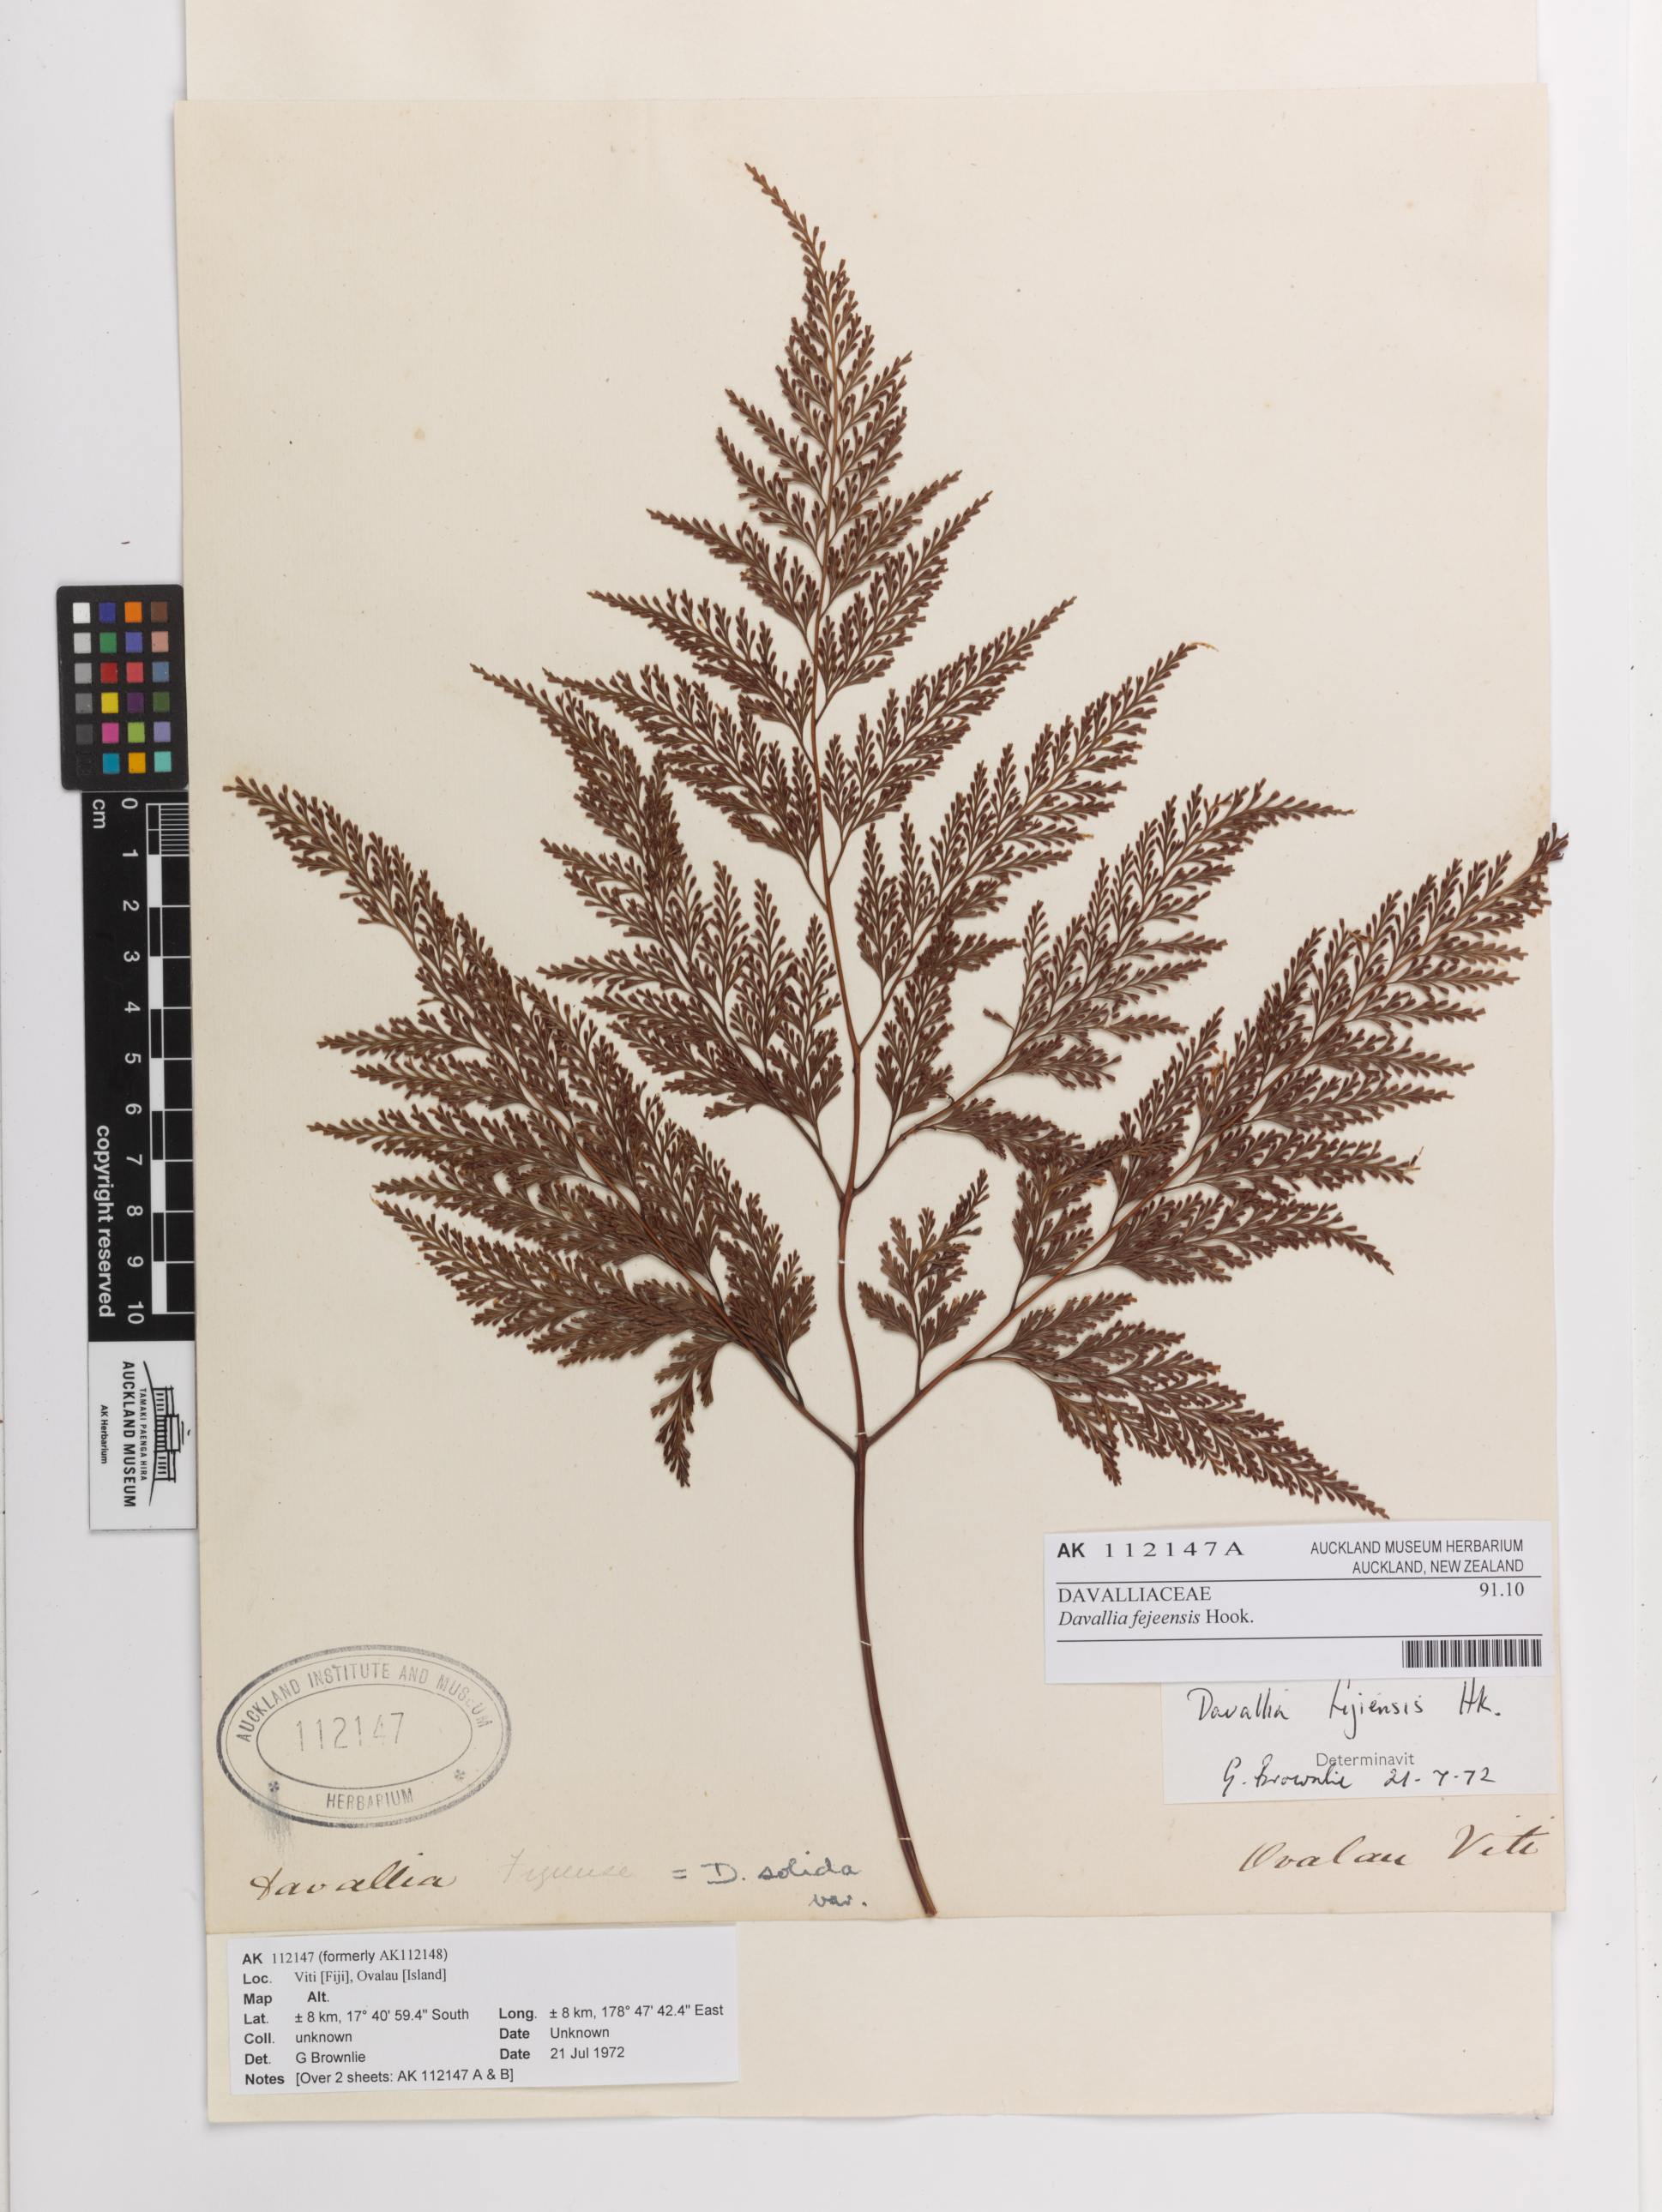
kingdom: Plantae
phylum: Tracheophyta
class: Polypodiopsida
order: Polypodiales
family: Davalliaceae
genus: Davallia
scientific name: Davallia fejeensis
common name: Lacy hare's-foot fern
